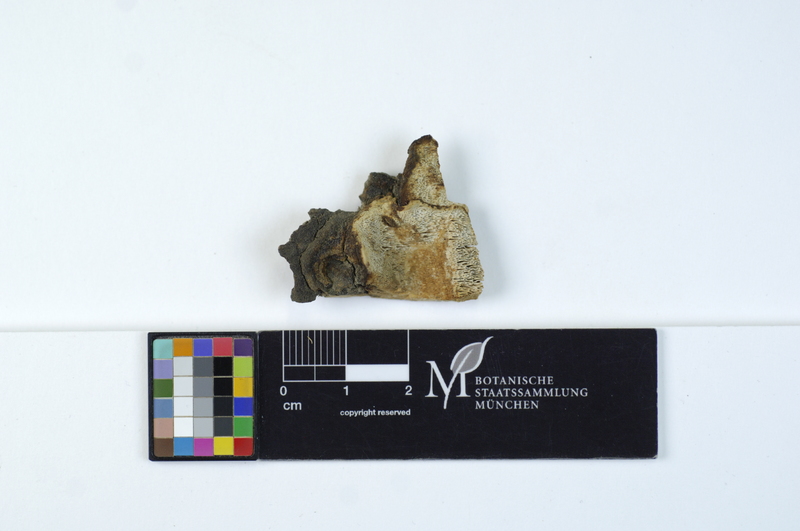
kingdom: Fungi
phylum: Basidiomycota
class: Agaricomycetes
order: Polyporales
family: Polyporaceae
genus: Perenniporia
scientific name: Perenniporia medulla-panis
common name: Pancake crust
